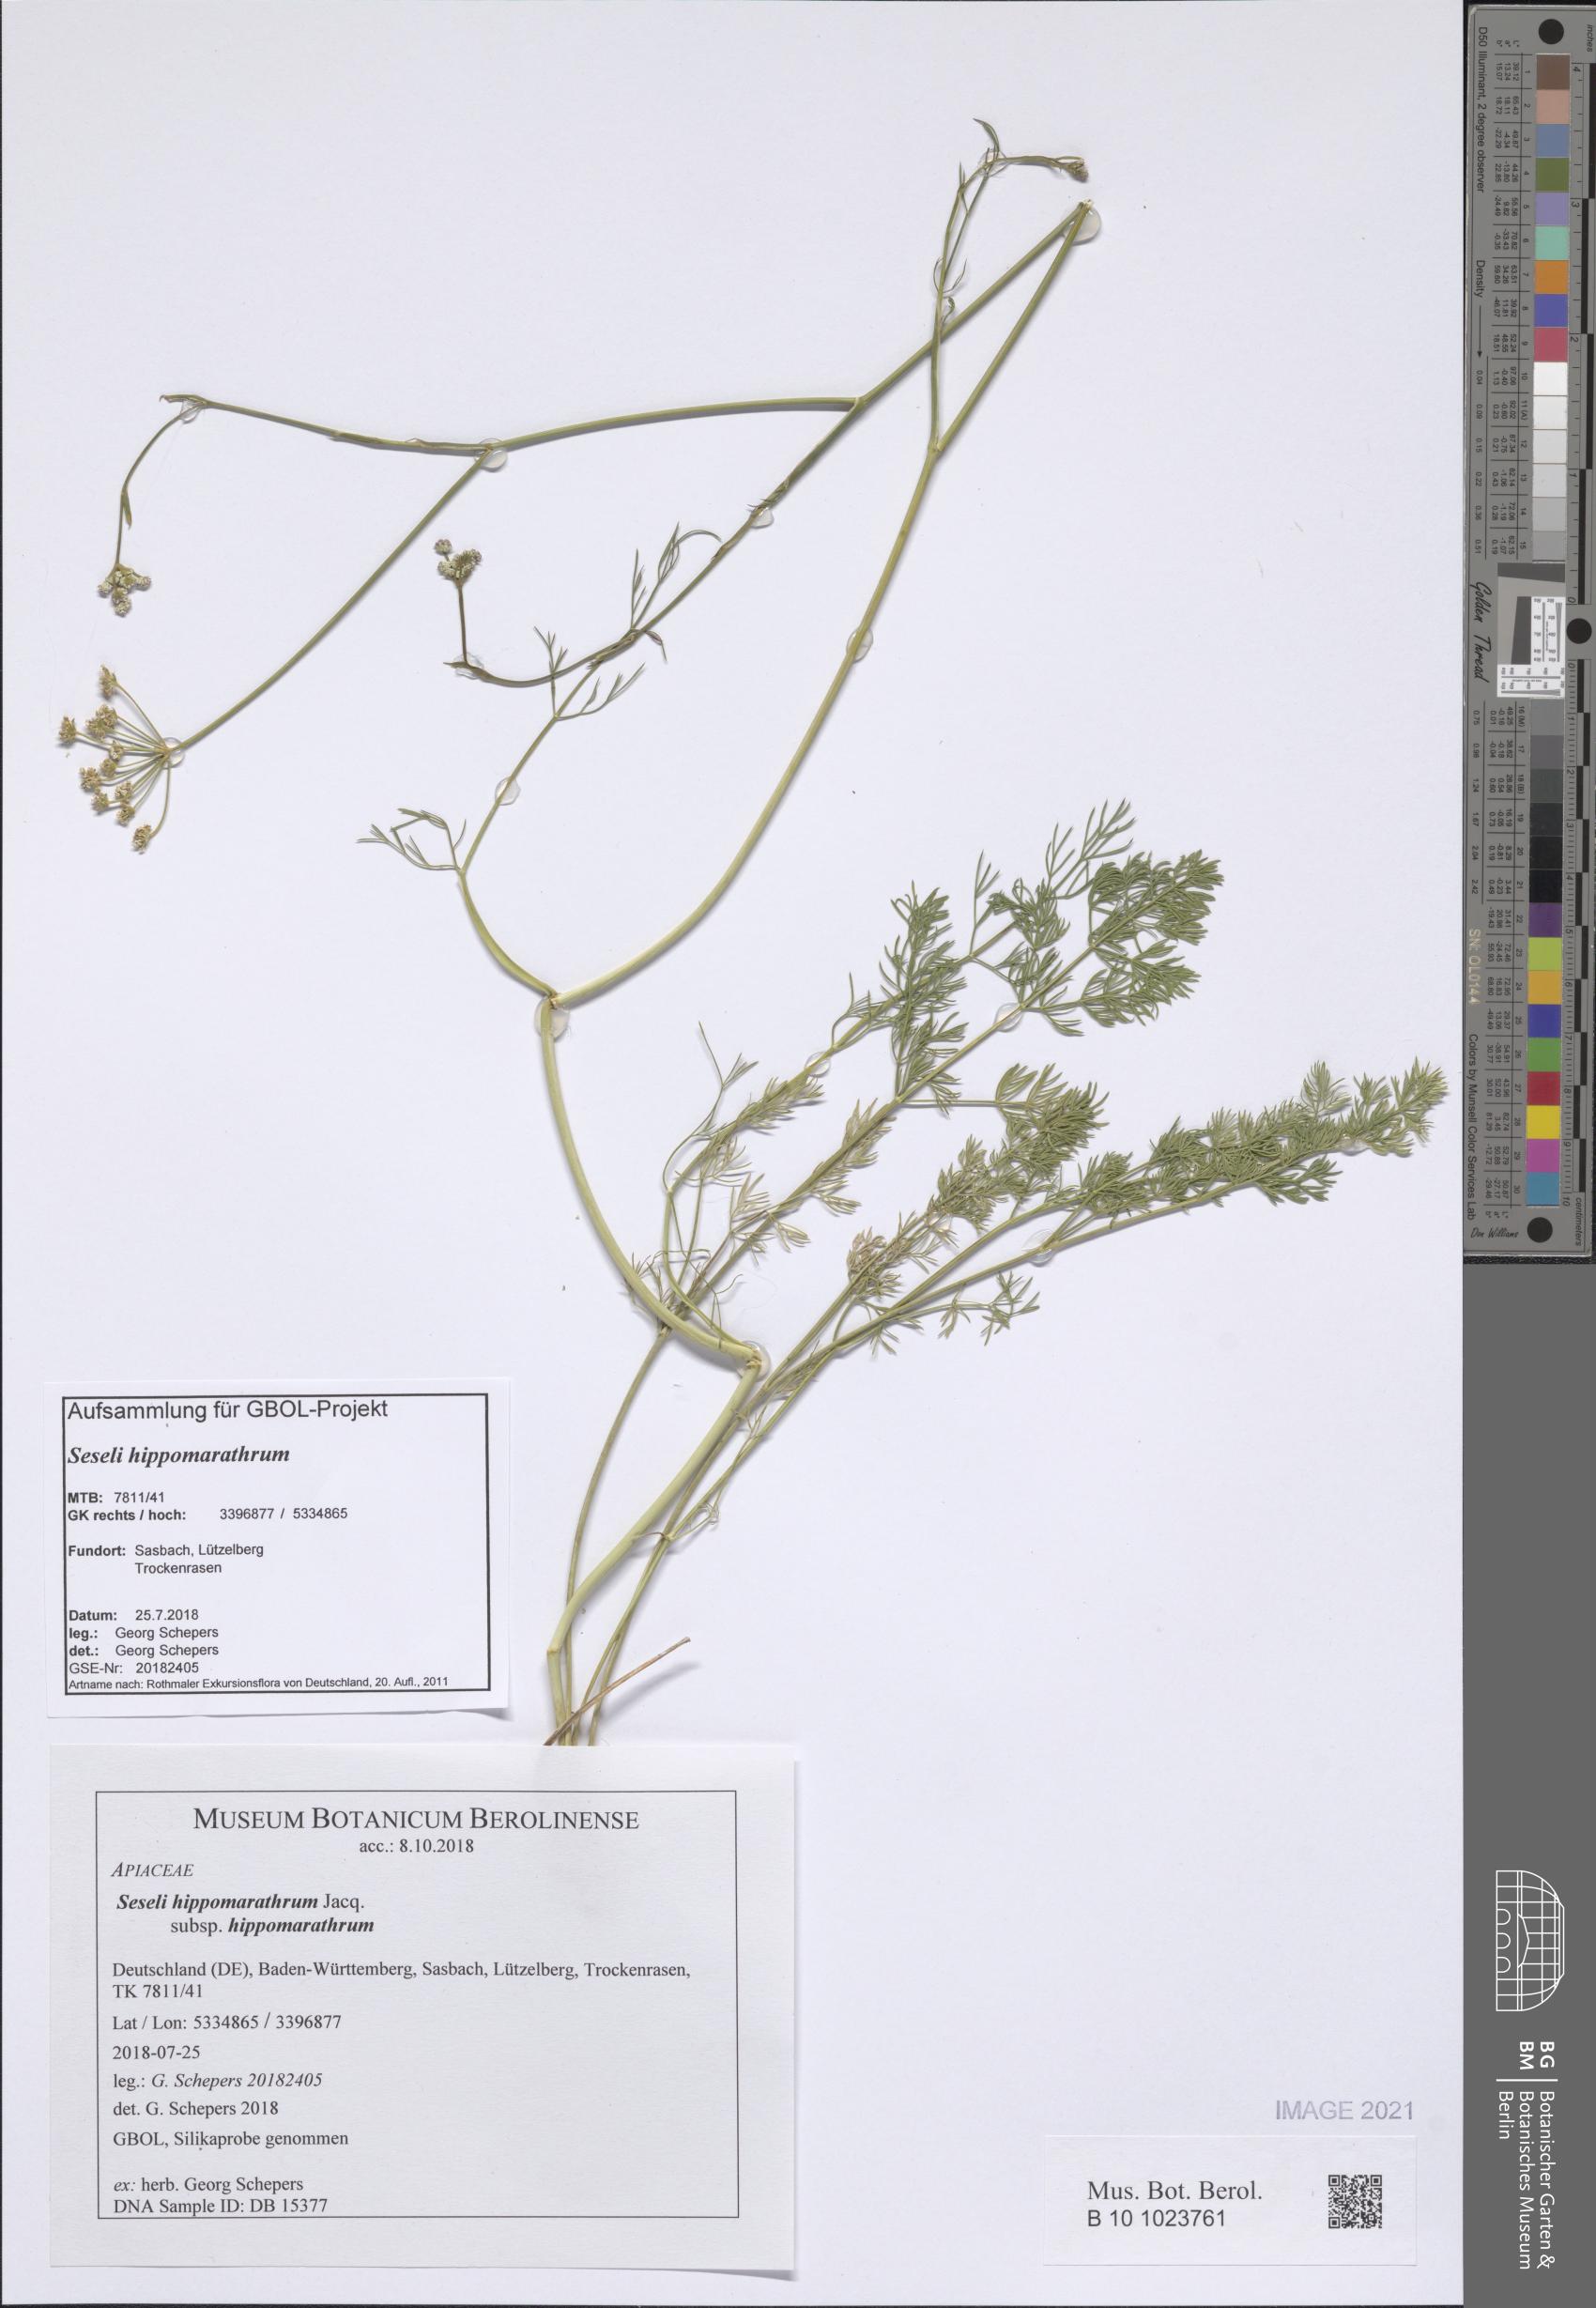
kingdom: Plantae
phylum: Tracheophyta
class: Magnoliopsida
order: Apiales
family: Apiaceae
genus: Hippomarathrum
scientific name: Hippomarathrum
